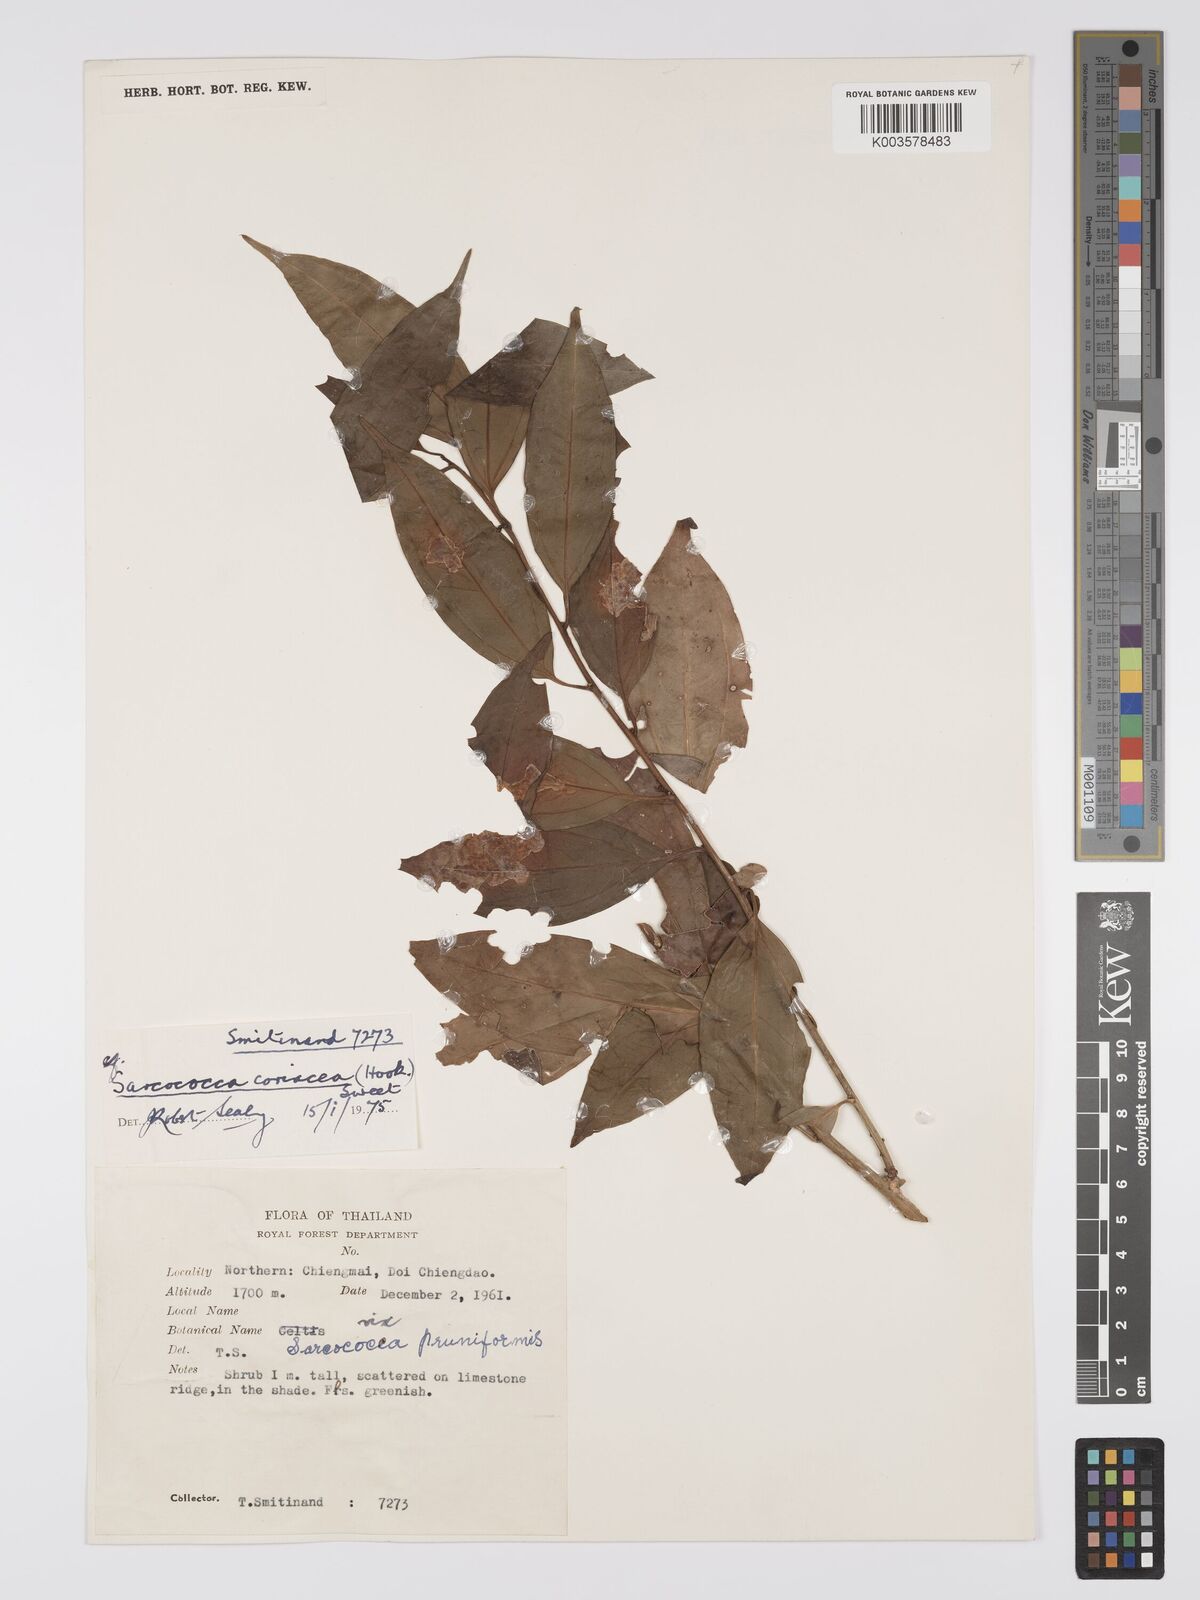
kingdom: Plantae
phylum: Tracheophyta
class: Magnoliopsida
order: Buxales
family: Buxaceae
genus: Sarcococca
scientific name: Sarcococca coriacea
